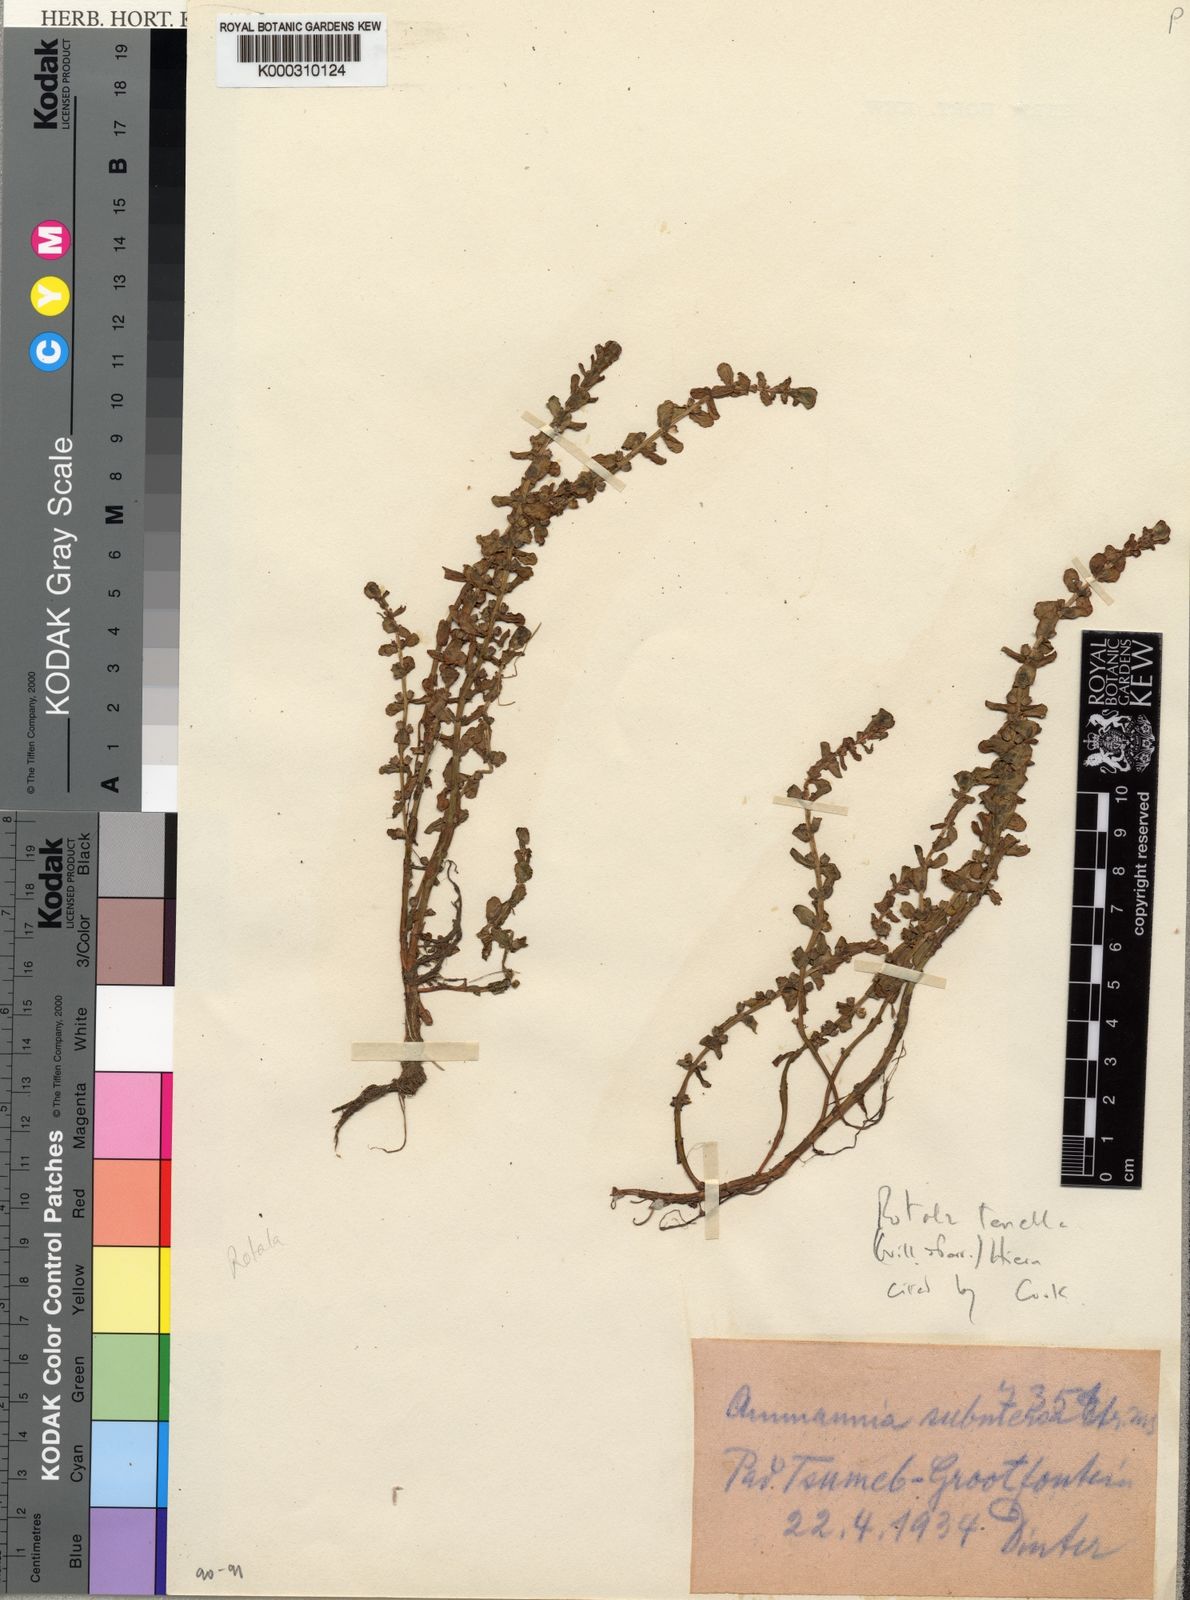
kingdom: Plantae
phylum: Tracheophyta
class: Magnoliopsida
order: Myrtales
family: Lythraceae
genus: Rotala
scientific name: Rotala tenella
